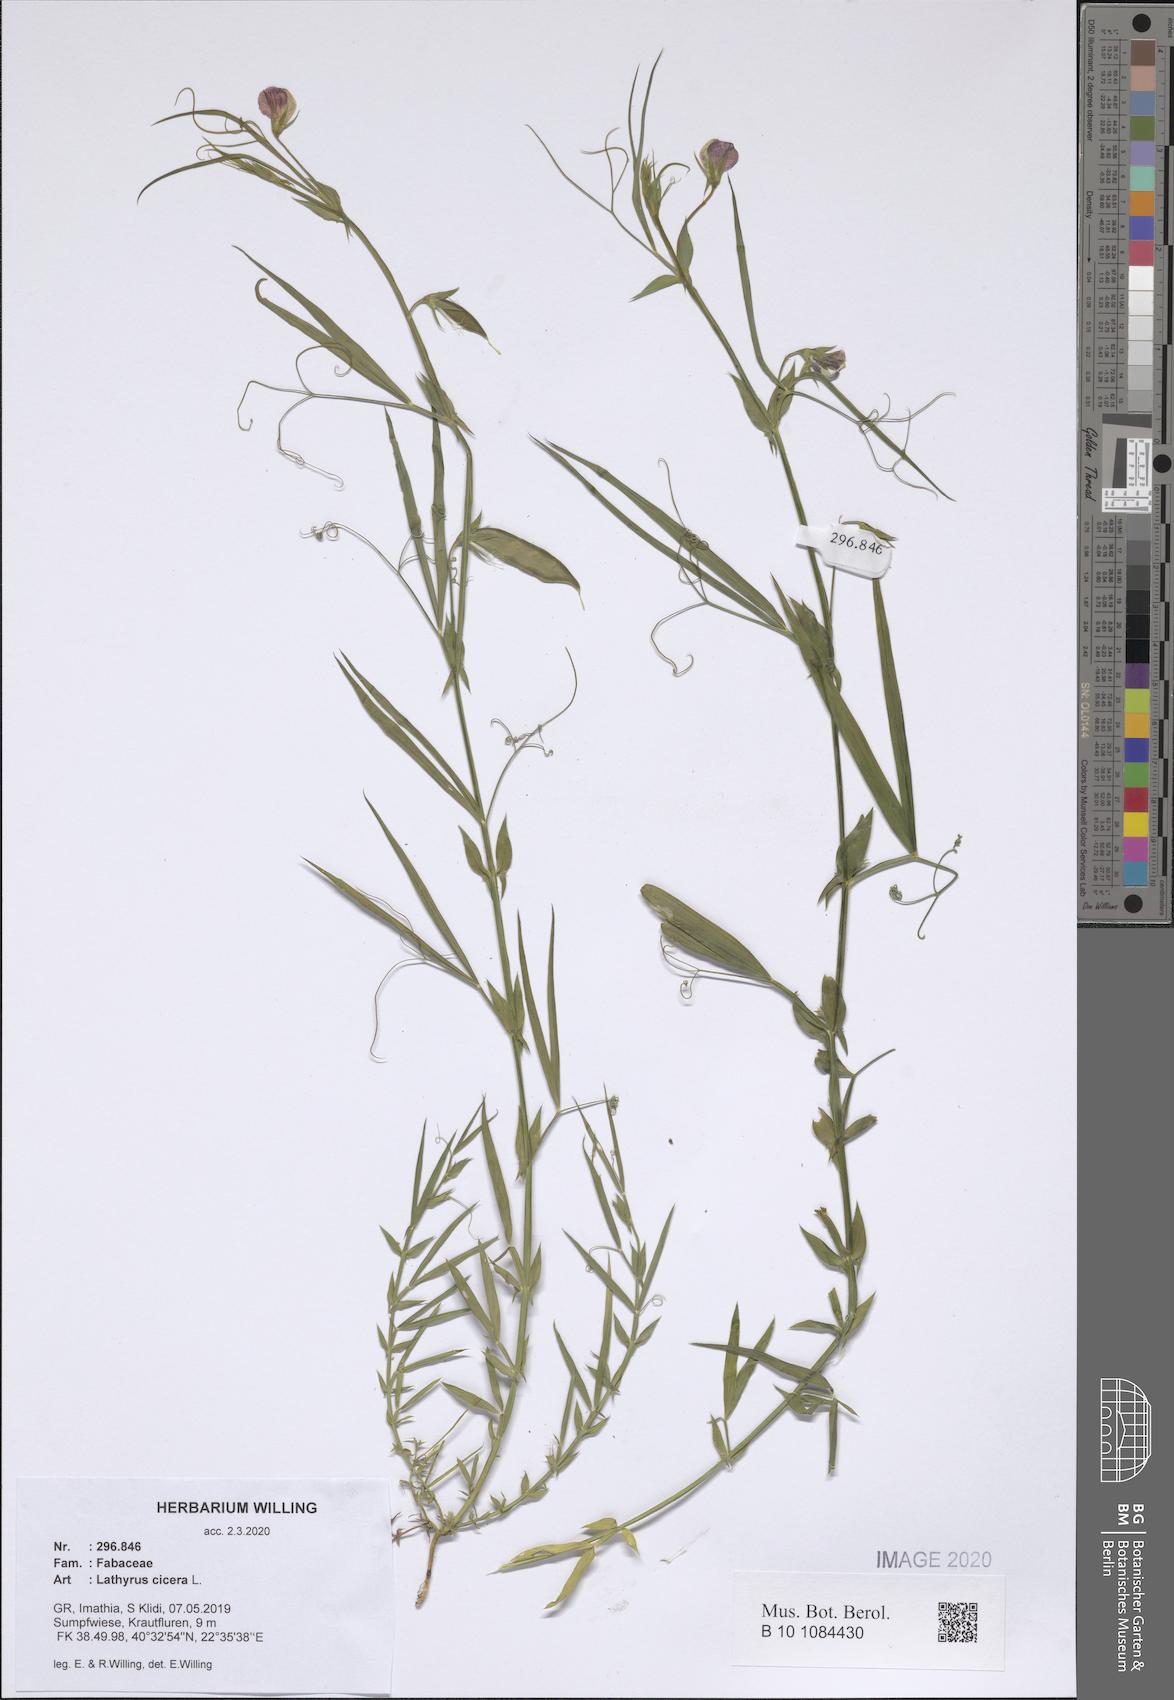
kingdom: Plantae
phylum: Tracheophyta
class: Magnoliopsida
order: Fabales
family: Fabaceae
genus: Lathyrus
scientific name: Lathyrus cicera
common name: Red vetchling
